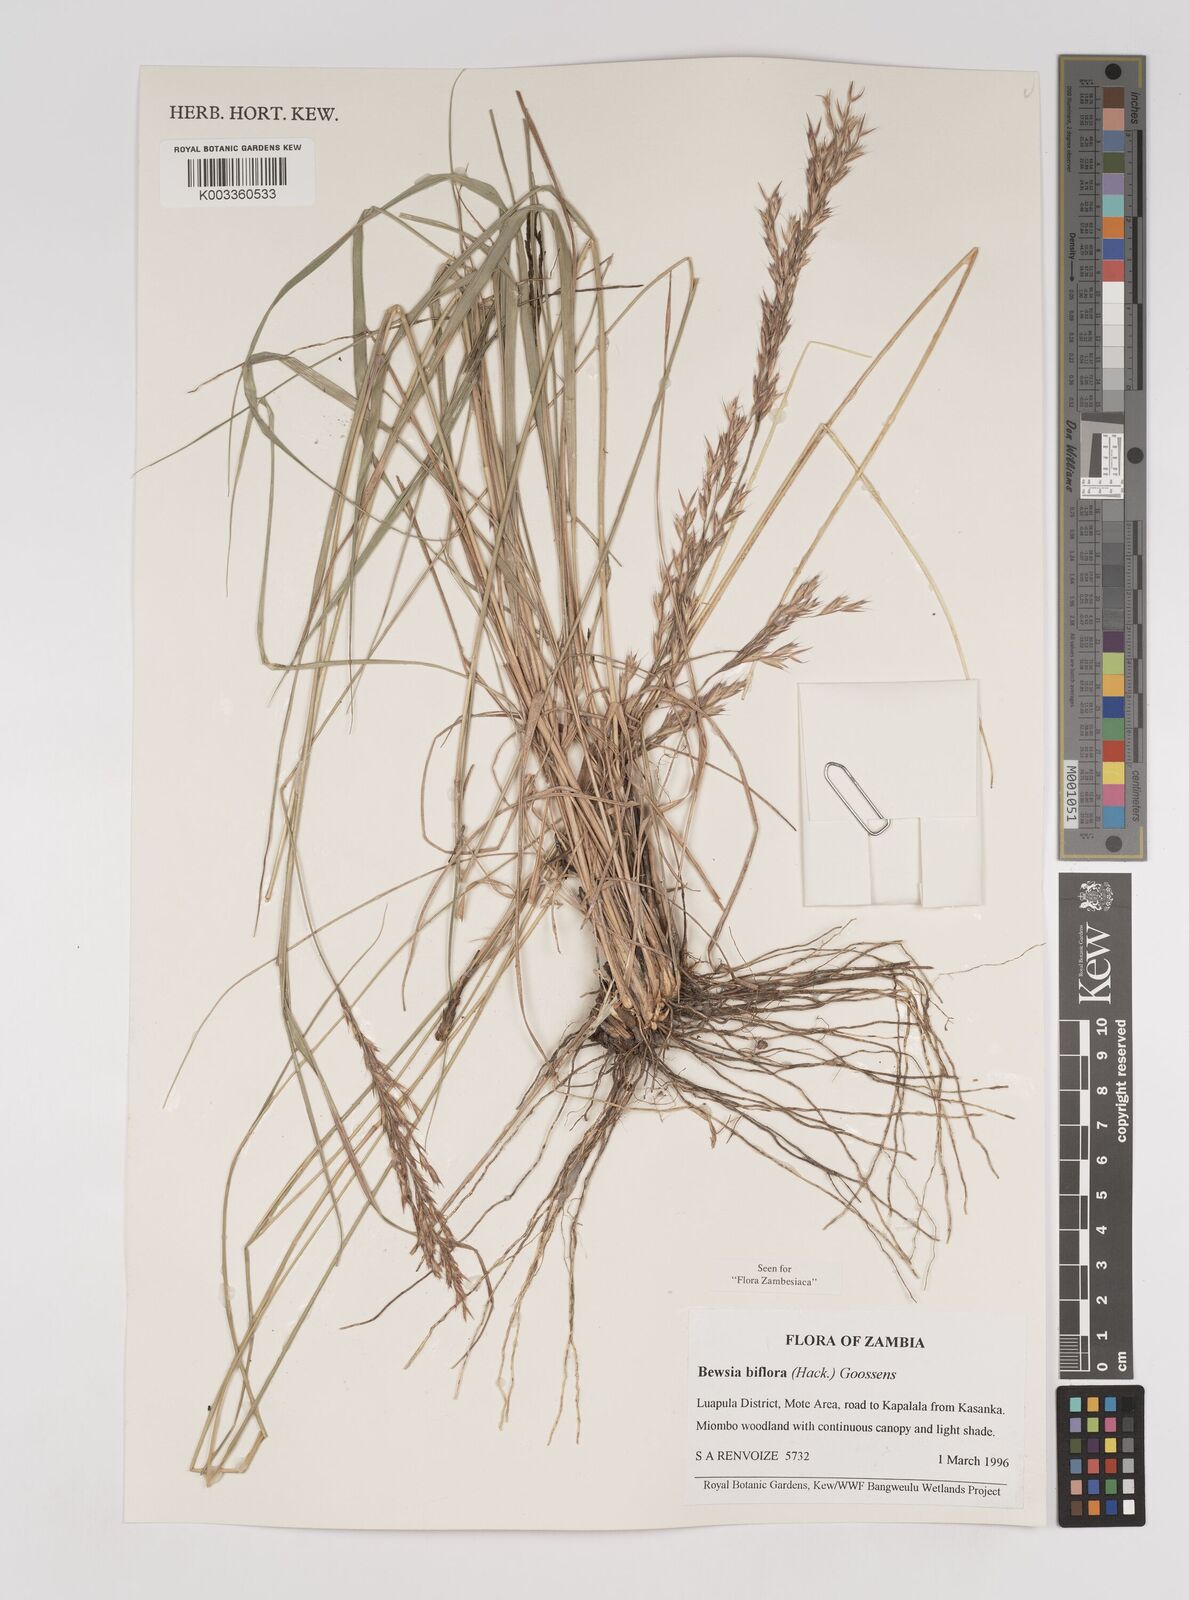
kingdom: Plantae
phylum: Tracheophyta
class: Liliopsida
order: Poales
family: Poaceae
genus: Bewsia
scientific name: Bewsia biflora
